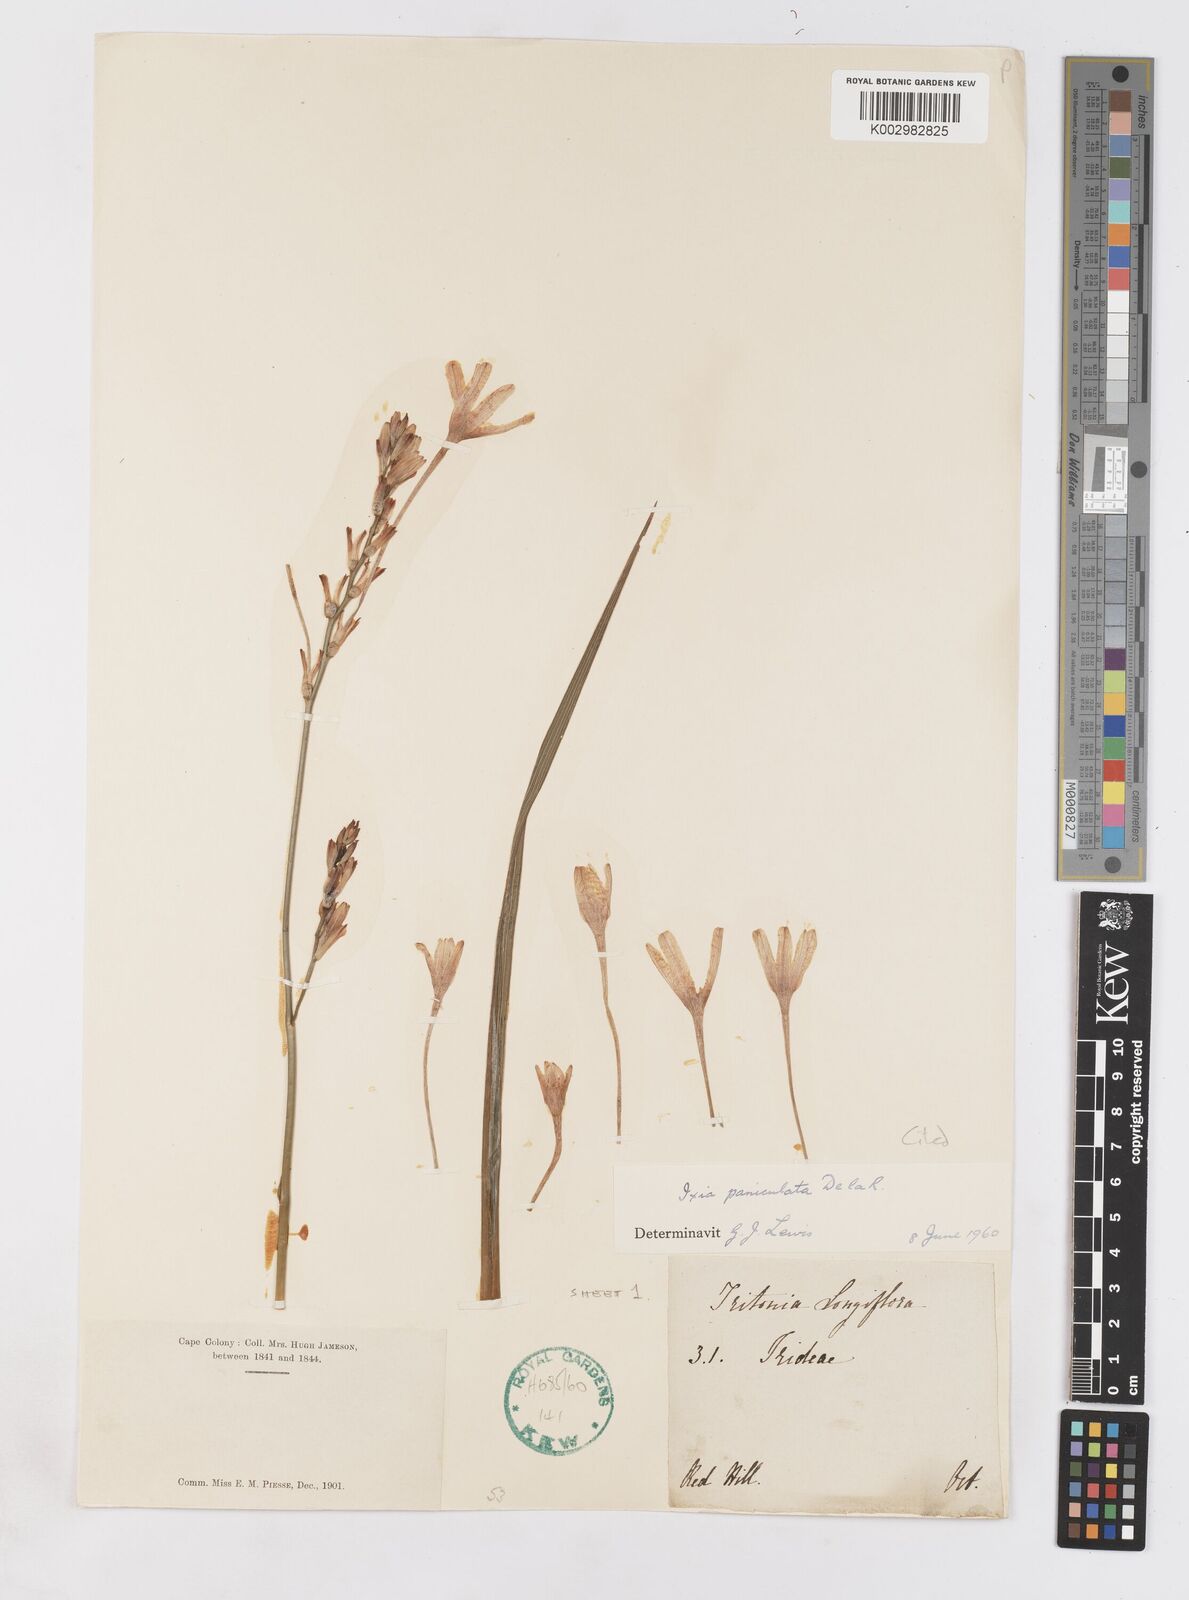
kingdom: Plantae
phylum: Tracheophyta
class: Liliopsida
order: Asparagales
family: Iridaceae
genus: Ixia
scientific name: Ixia paniculata
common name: Tubular corn-lily
